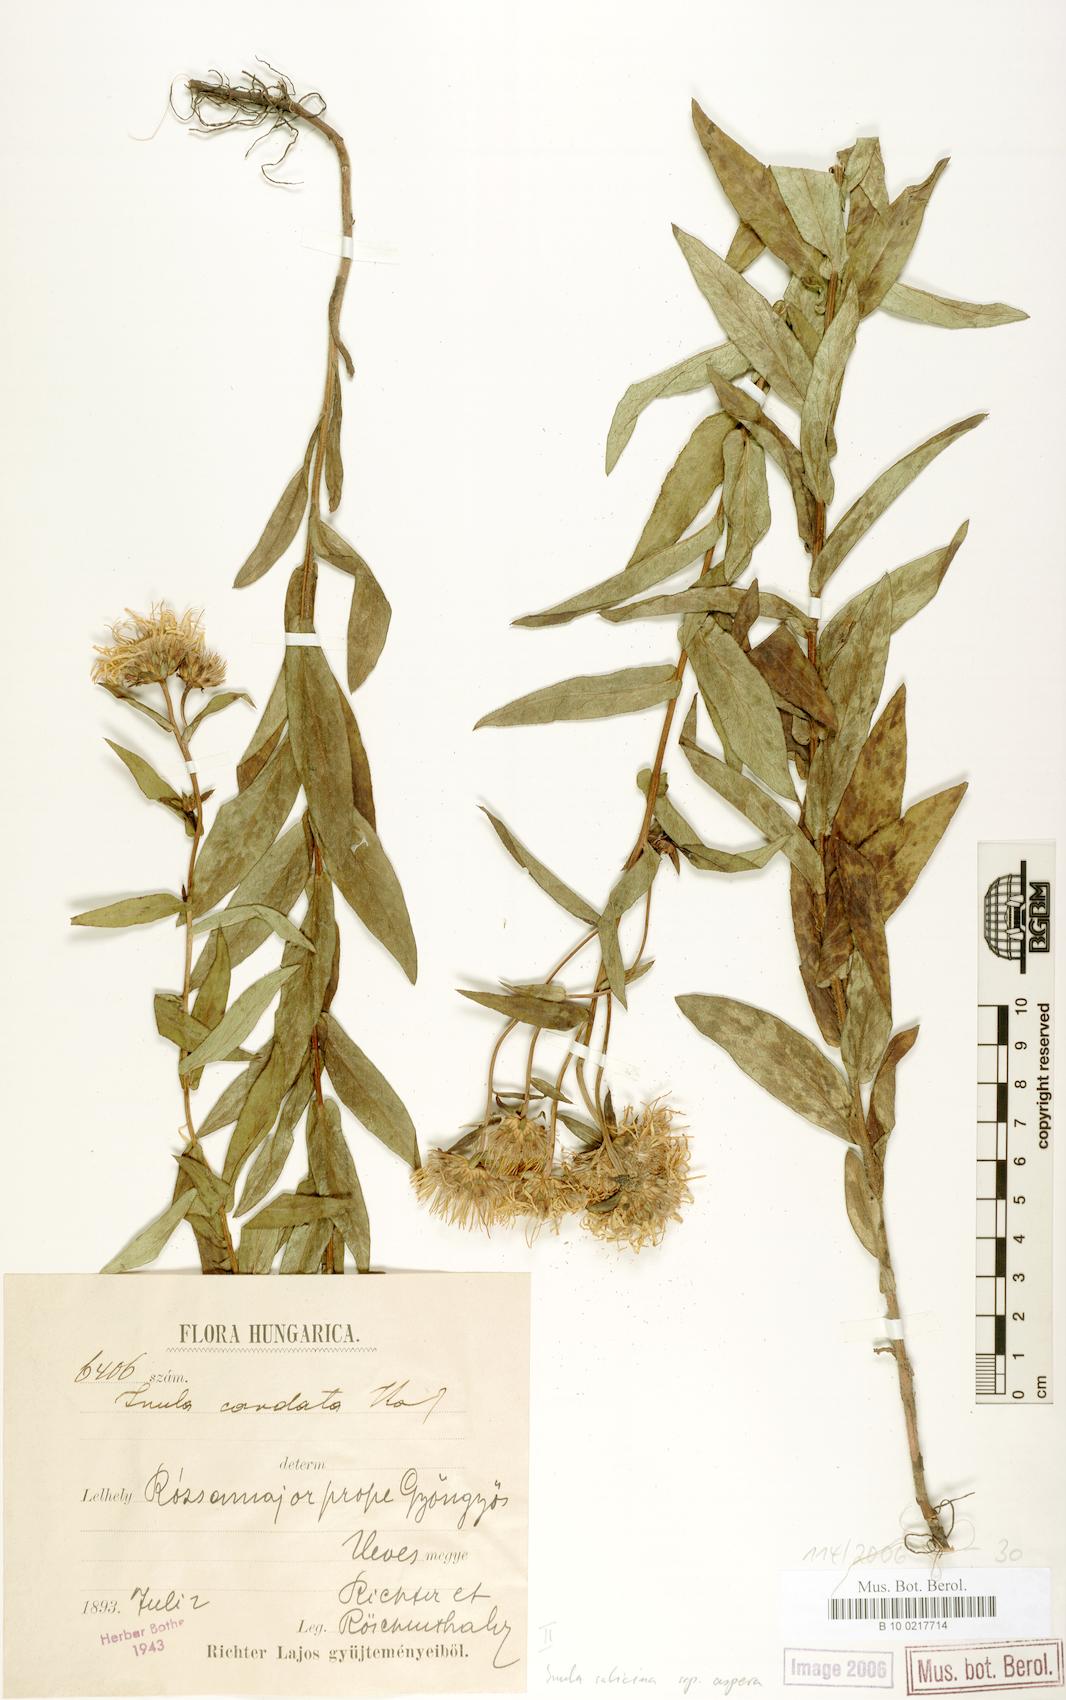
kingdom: Plantae
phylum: Tracheophyta
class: Magnoliopsida
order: Asterales
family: Asteraceae
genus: Pentanema
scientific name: Pentanema salicinum
